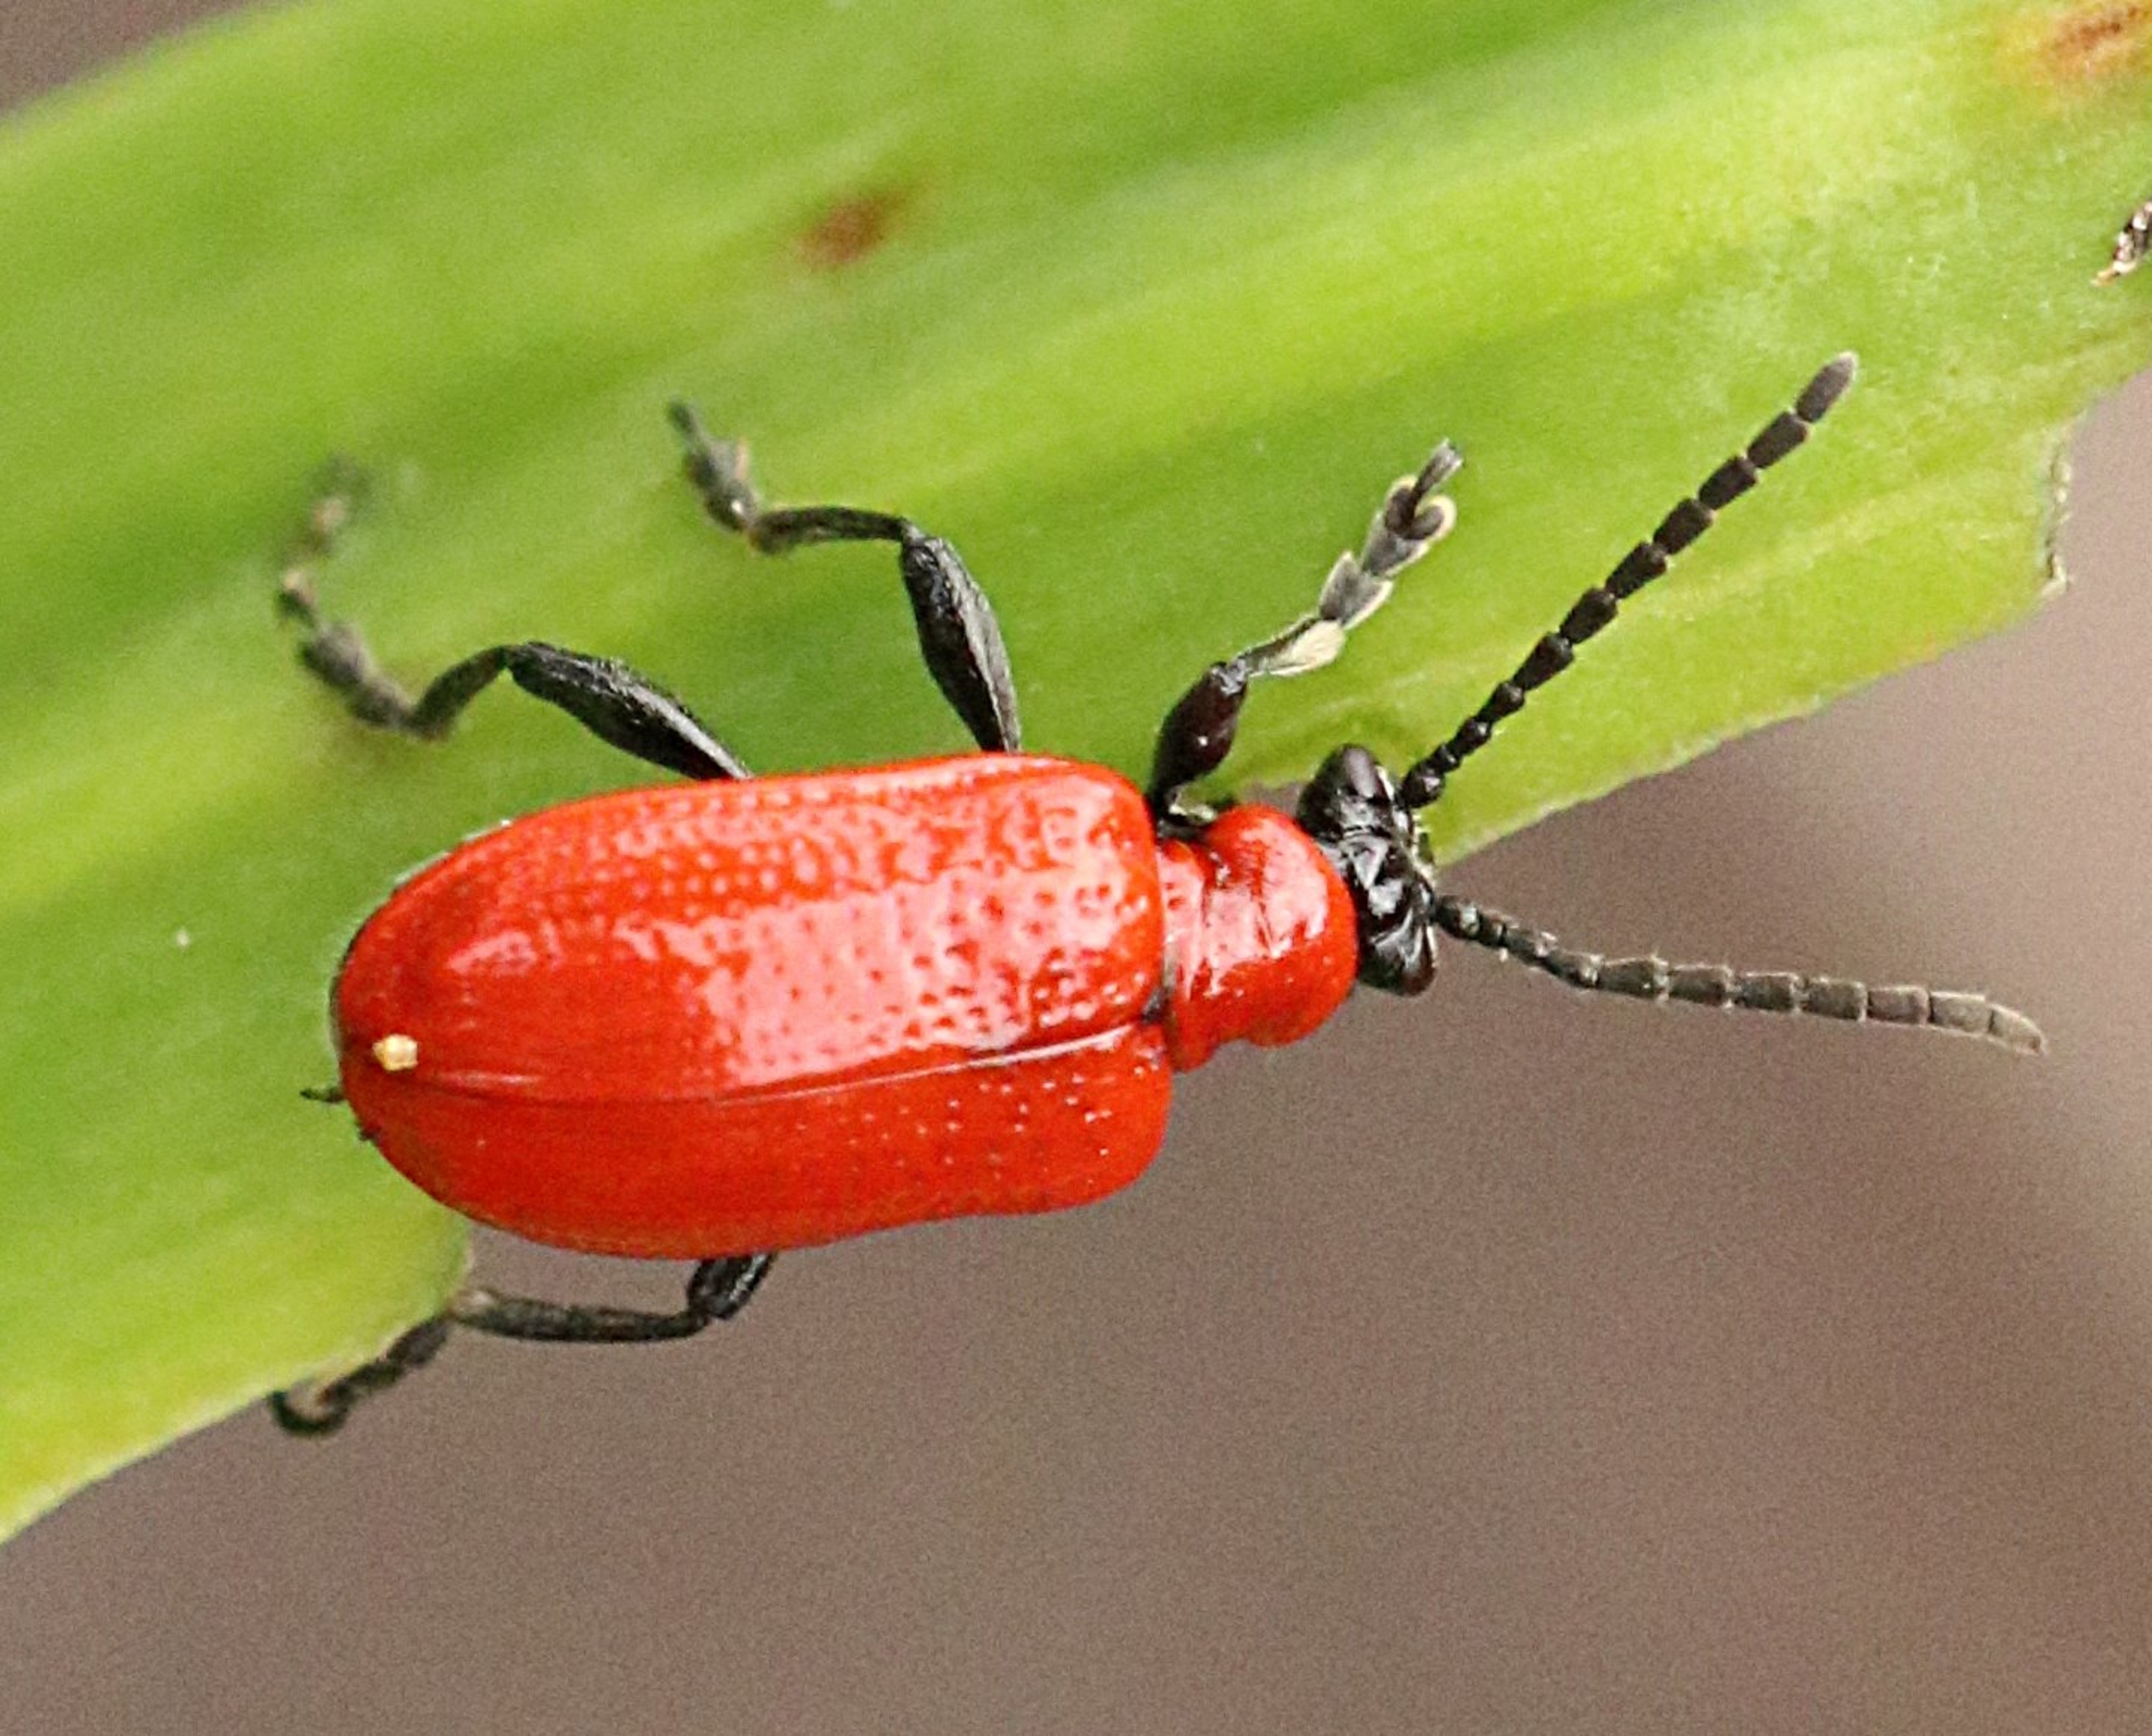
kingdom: Animalia
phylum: Arthropoda
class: Insecta
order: Coleoptera
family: Chrysomelidae
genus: Lilioceris
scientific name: Lilioceris lilii
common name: Liljebille
